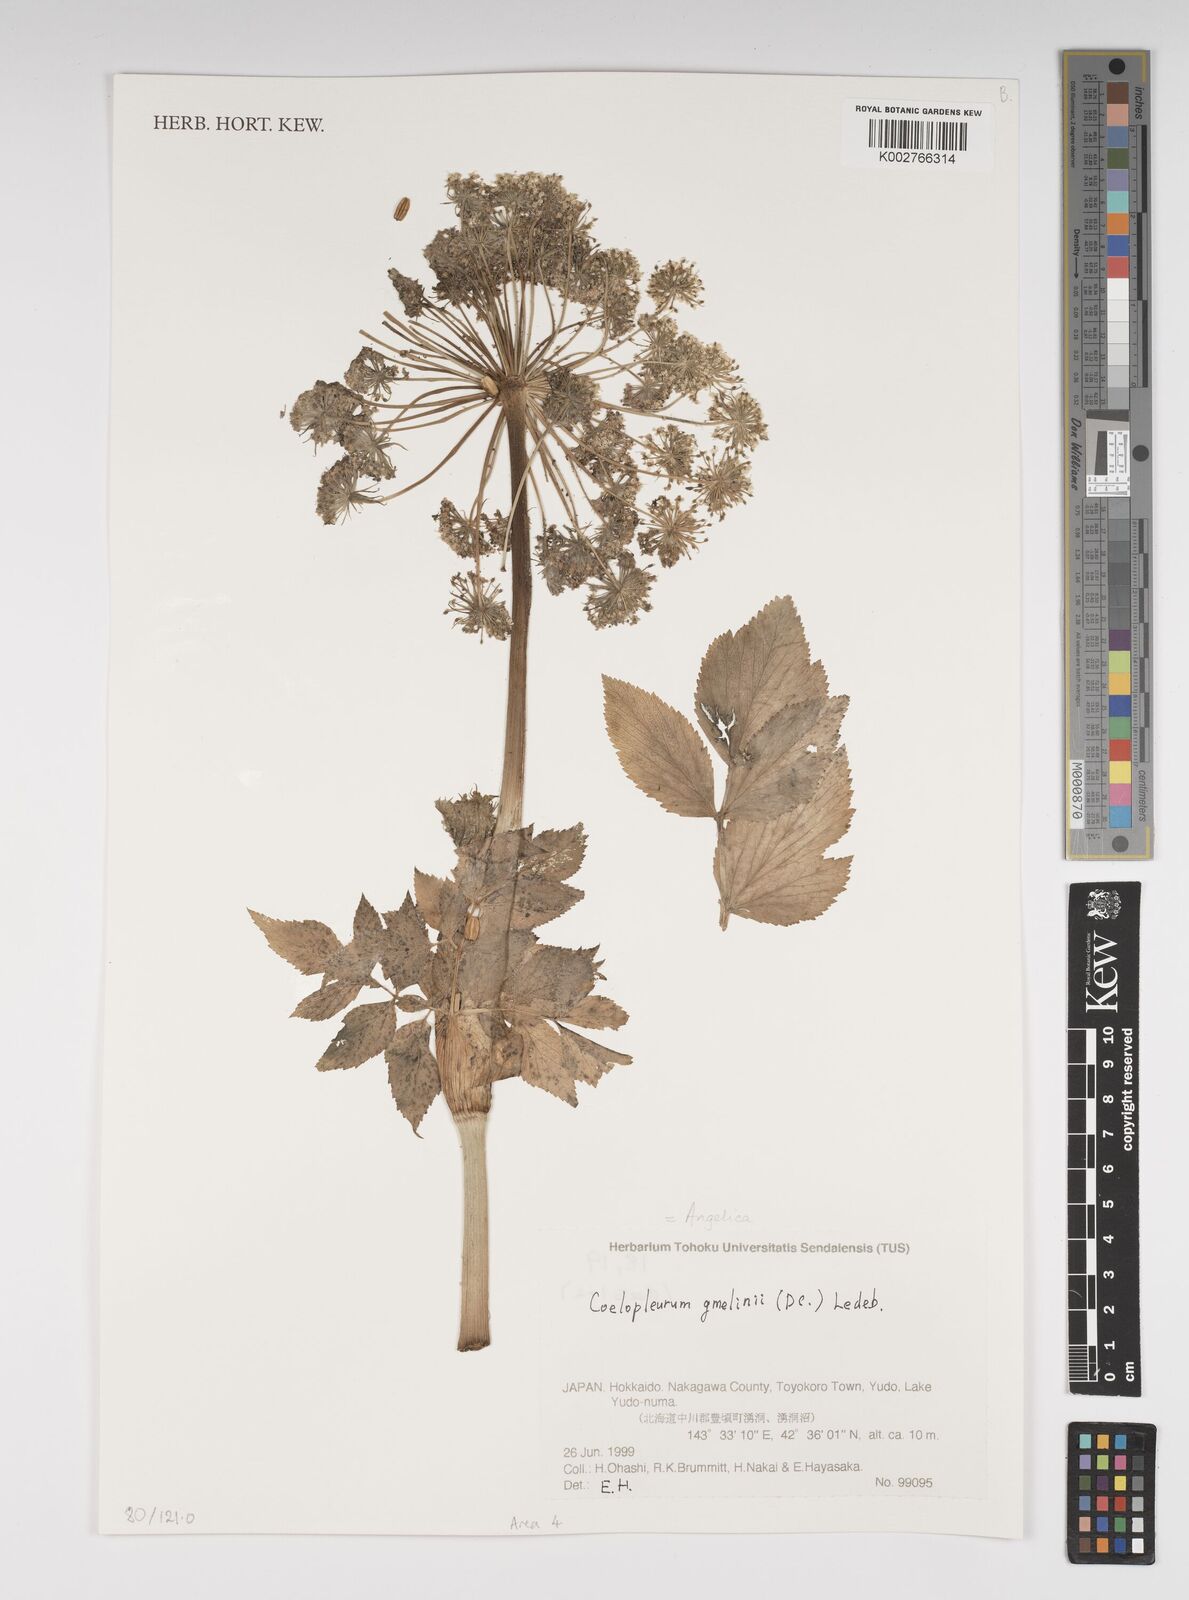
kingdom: Plantae
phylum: Tracheophyta
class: Magnoliopsida
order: Apiales
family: Apiaceae
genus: Angelica
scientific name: Angelica gmelinii
